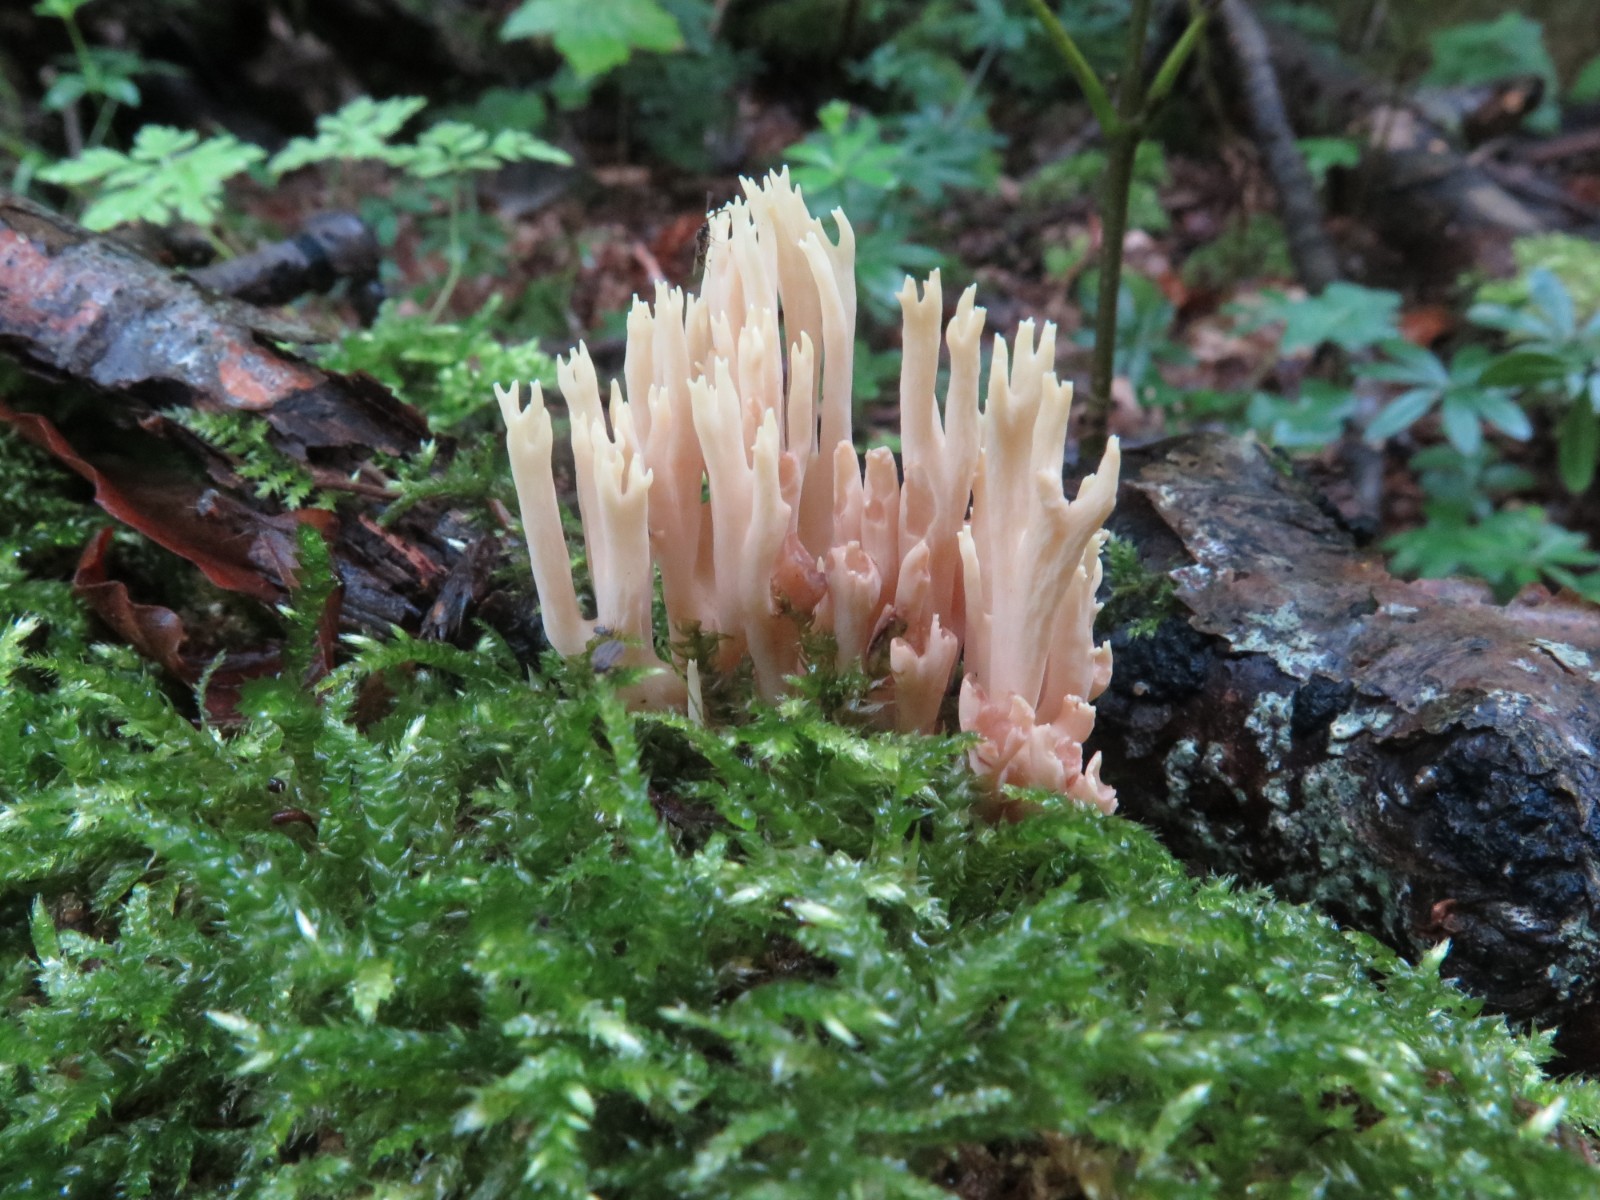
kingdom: Fungi
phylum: Basidiomycota
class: Agaricomycetes
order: Gomphales
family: Gomphaceae
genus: Ramaria
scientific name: Ramaria stricta
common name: rank koralsvamp
